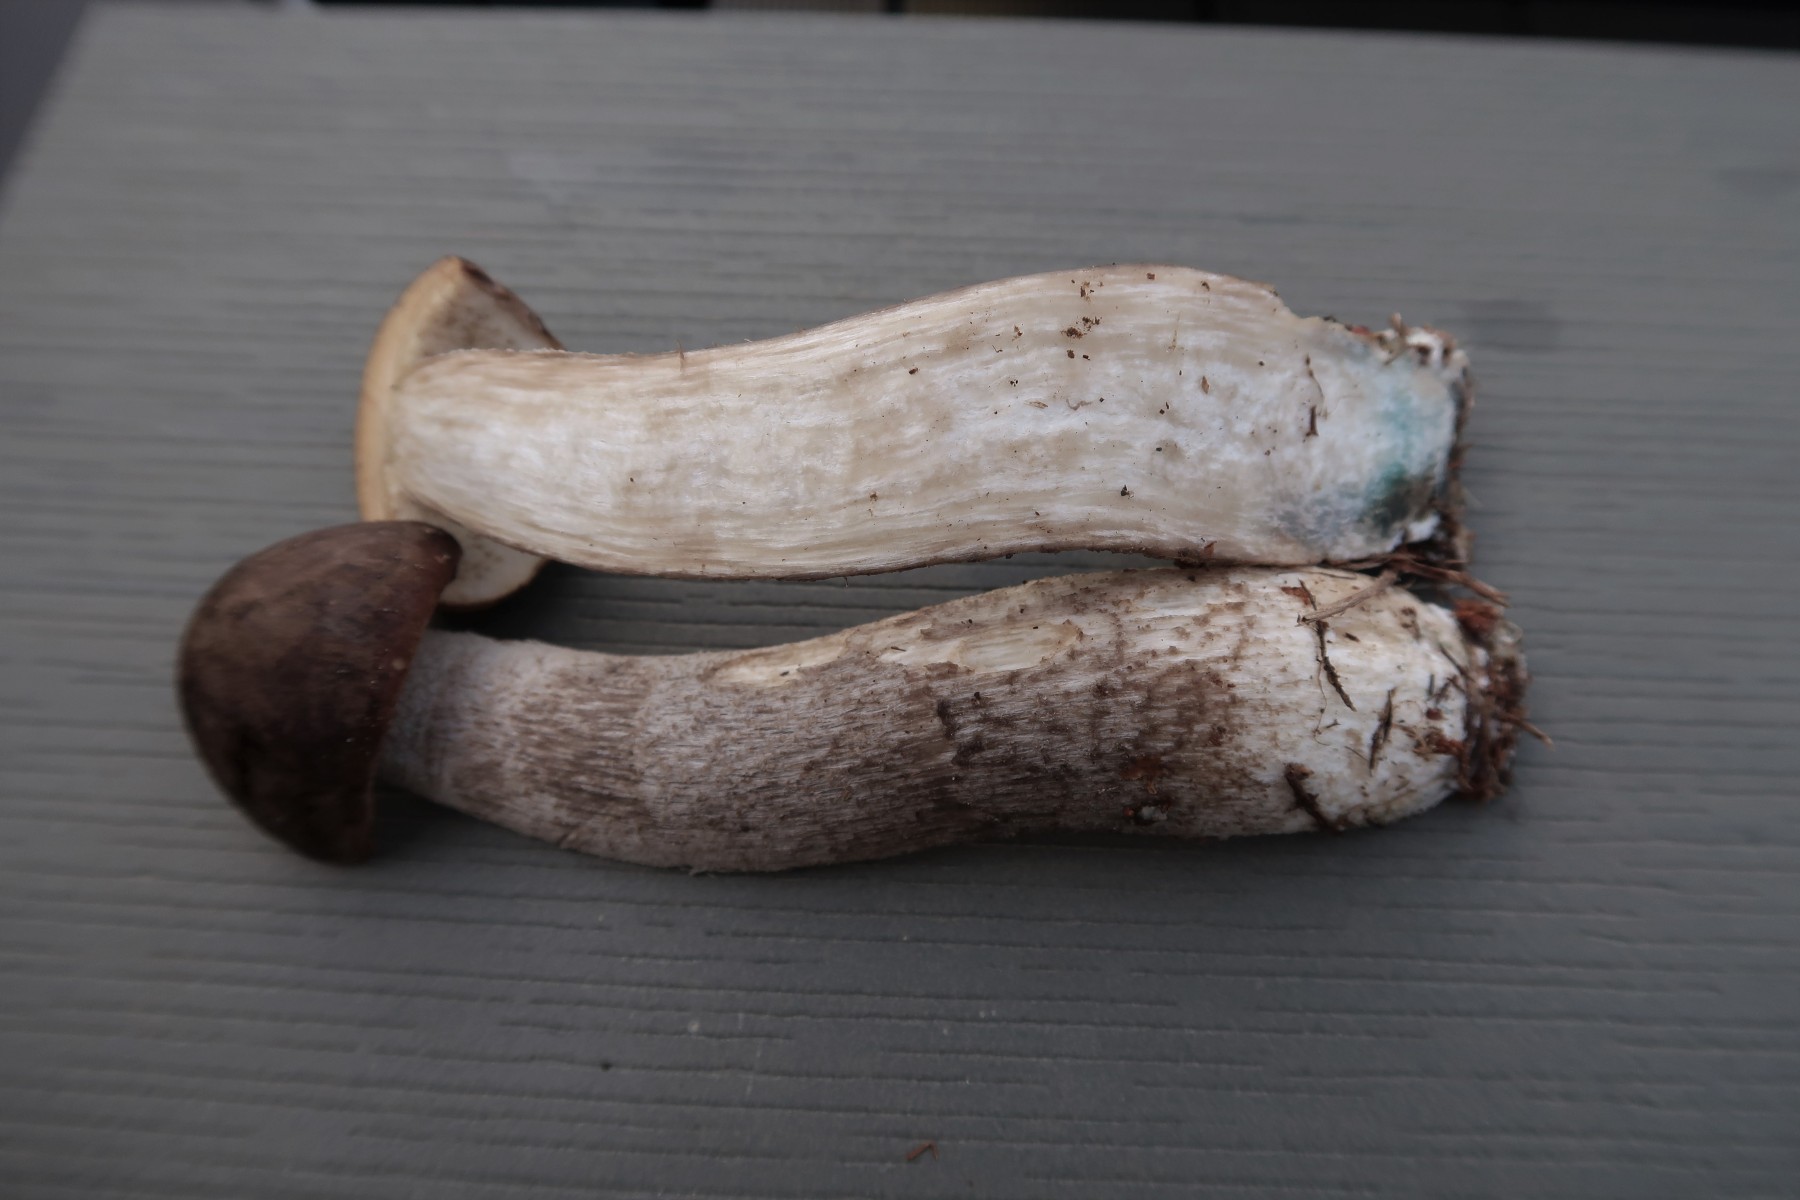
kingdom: Fungi
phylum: Basidiomycota
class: Agaricomycetes
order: Boletales
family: Boletaceae
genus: Leccinum
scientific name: Leccinum
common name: skælrørhat
